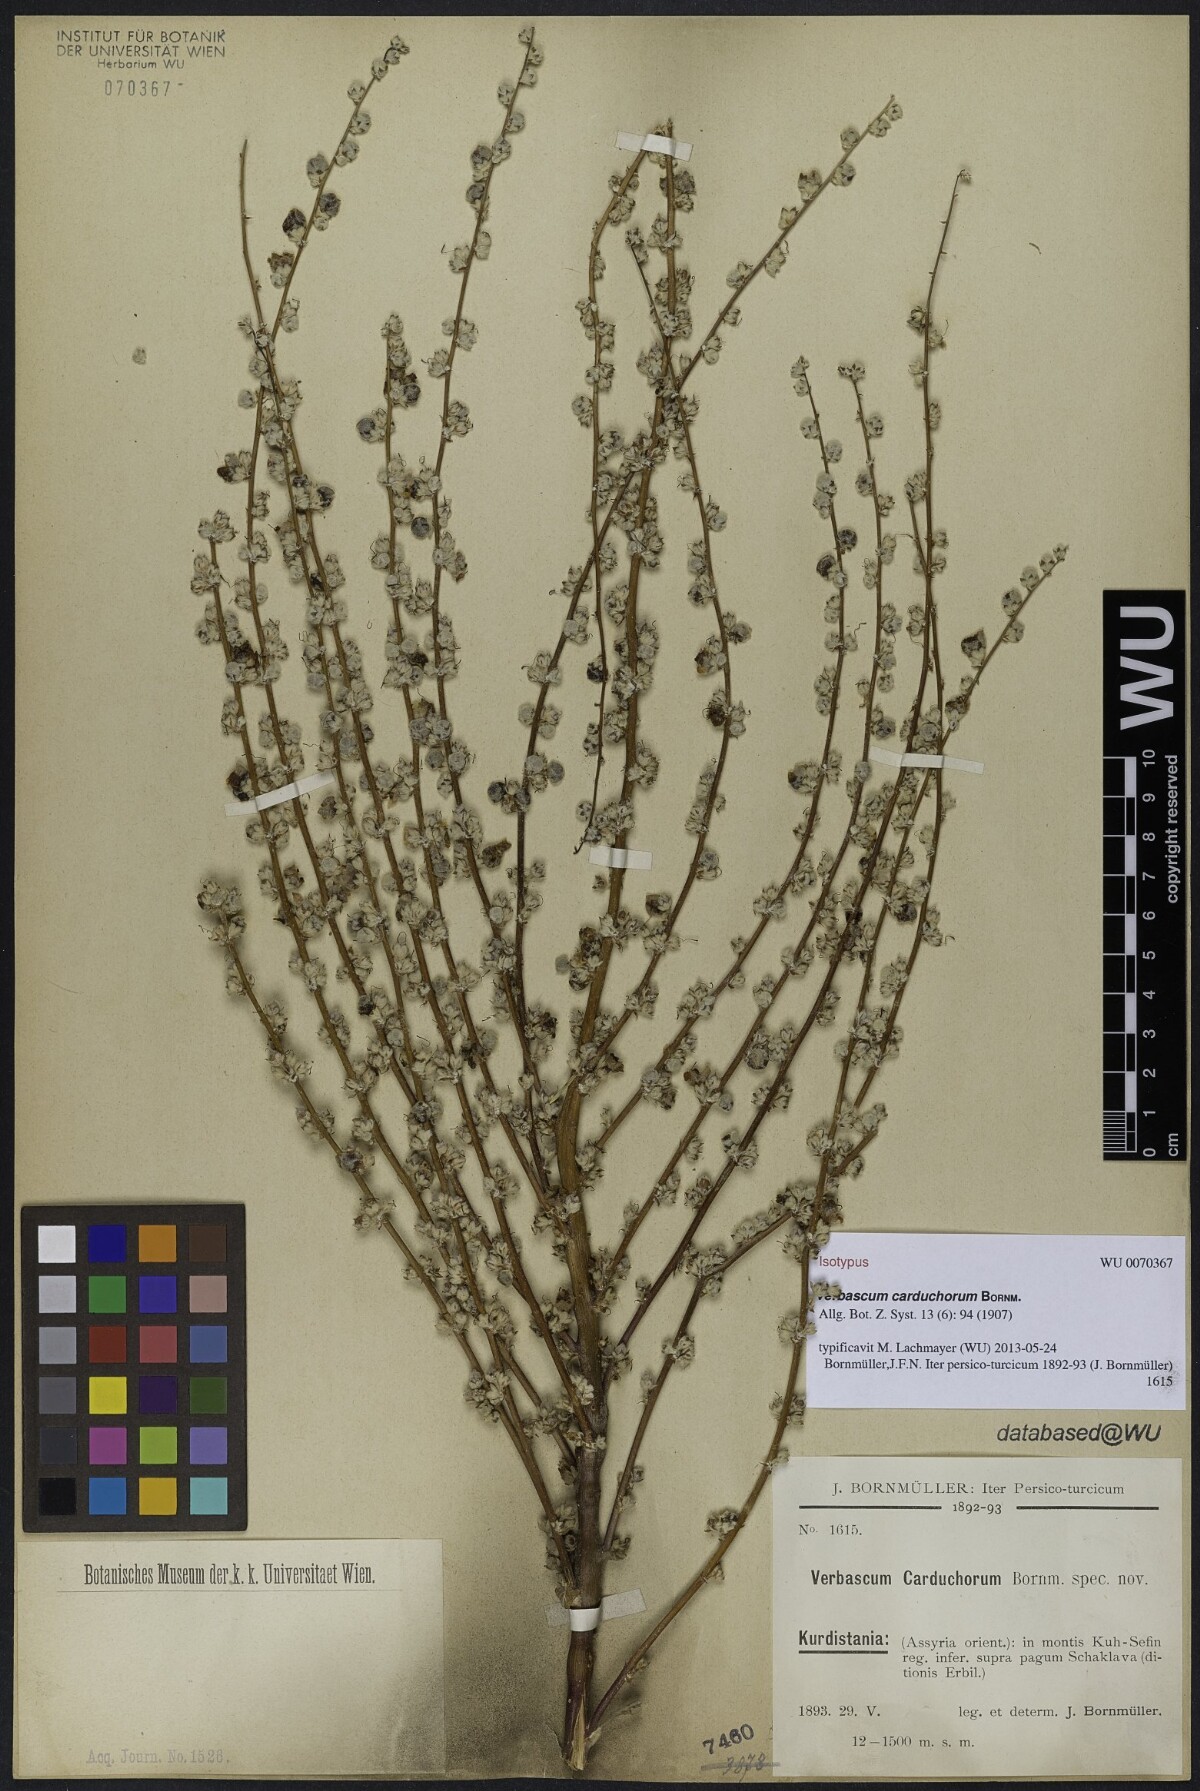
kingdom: Plantae
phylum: Tracheophyta
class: Magnoliopsida
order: Lamiales
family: Scrophulariaceae
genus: Verbascum
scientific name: Verbascum carduchorum
